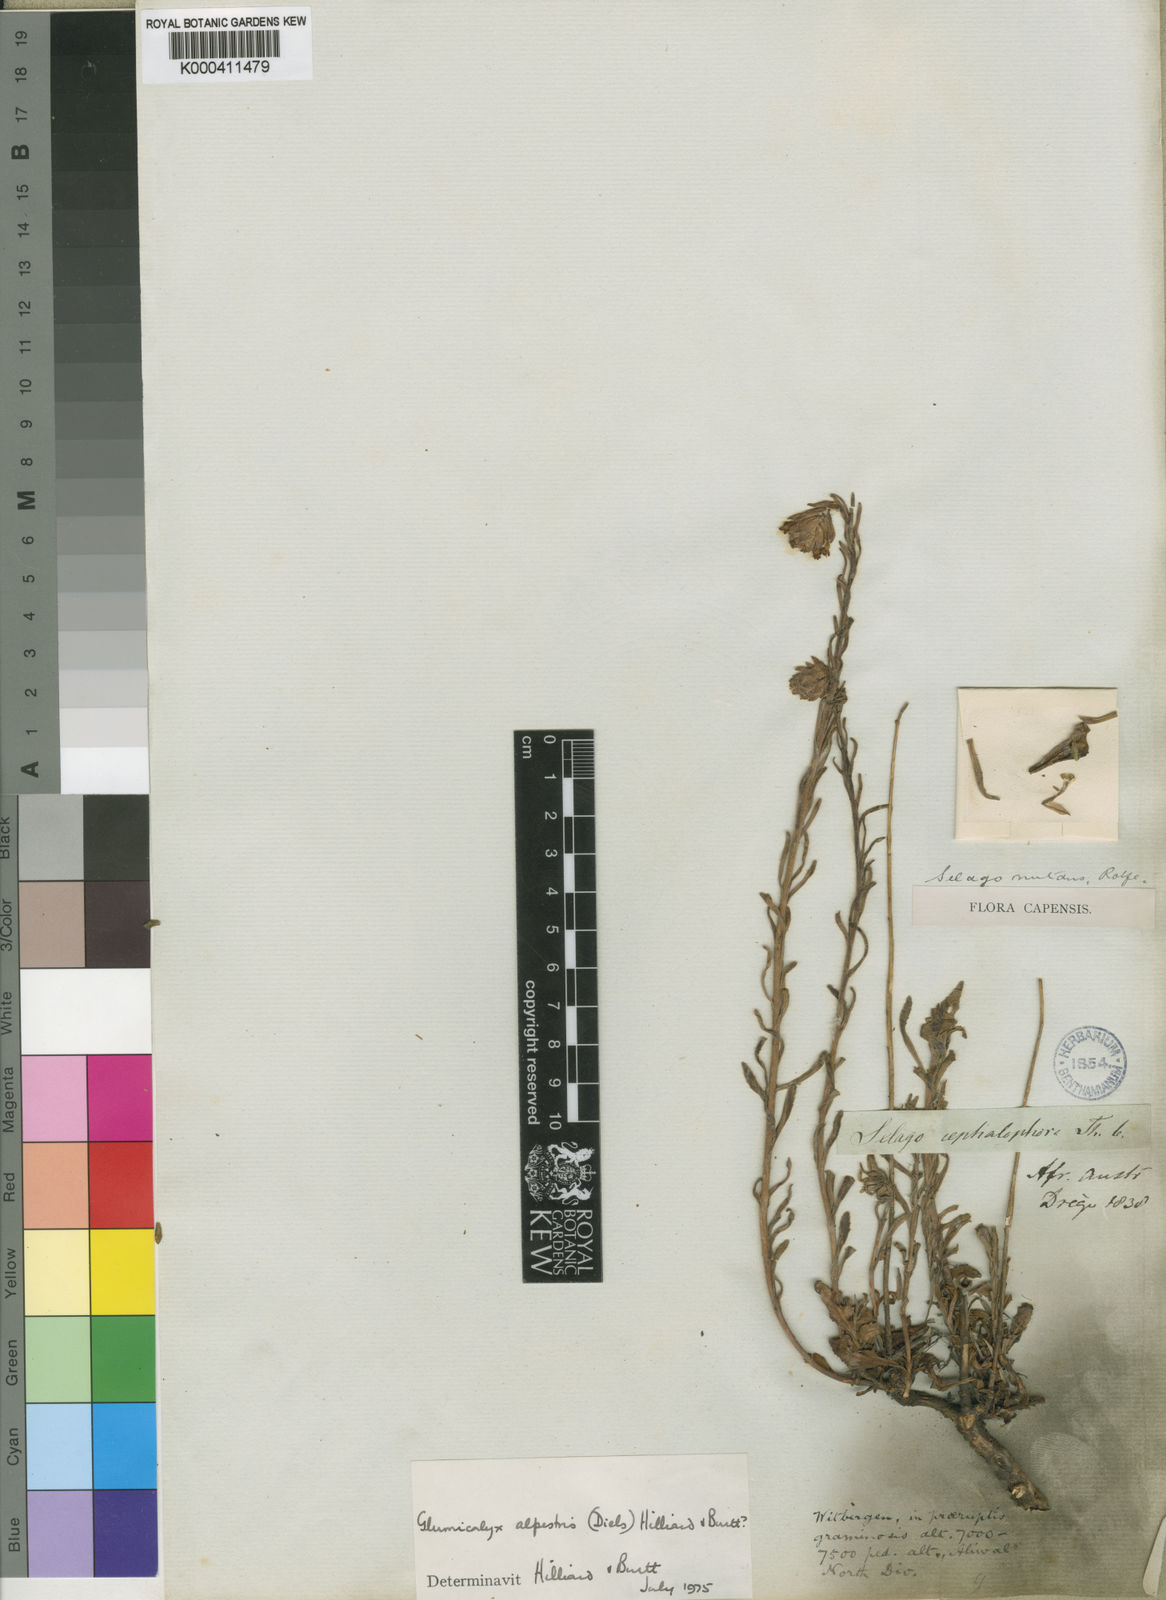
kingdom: Plantae
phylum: Tracheophyta
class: Magnoliopsida
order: Lamiales
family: Scrophulariaceae
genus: Glumicalyx
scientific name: Glumicalyx nutans
